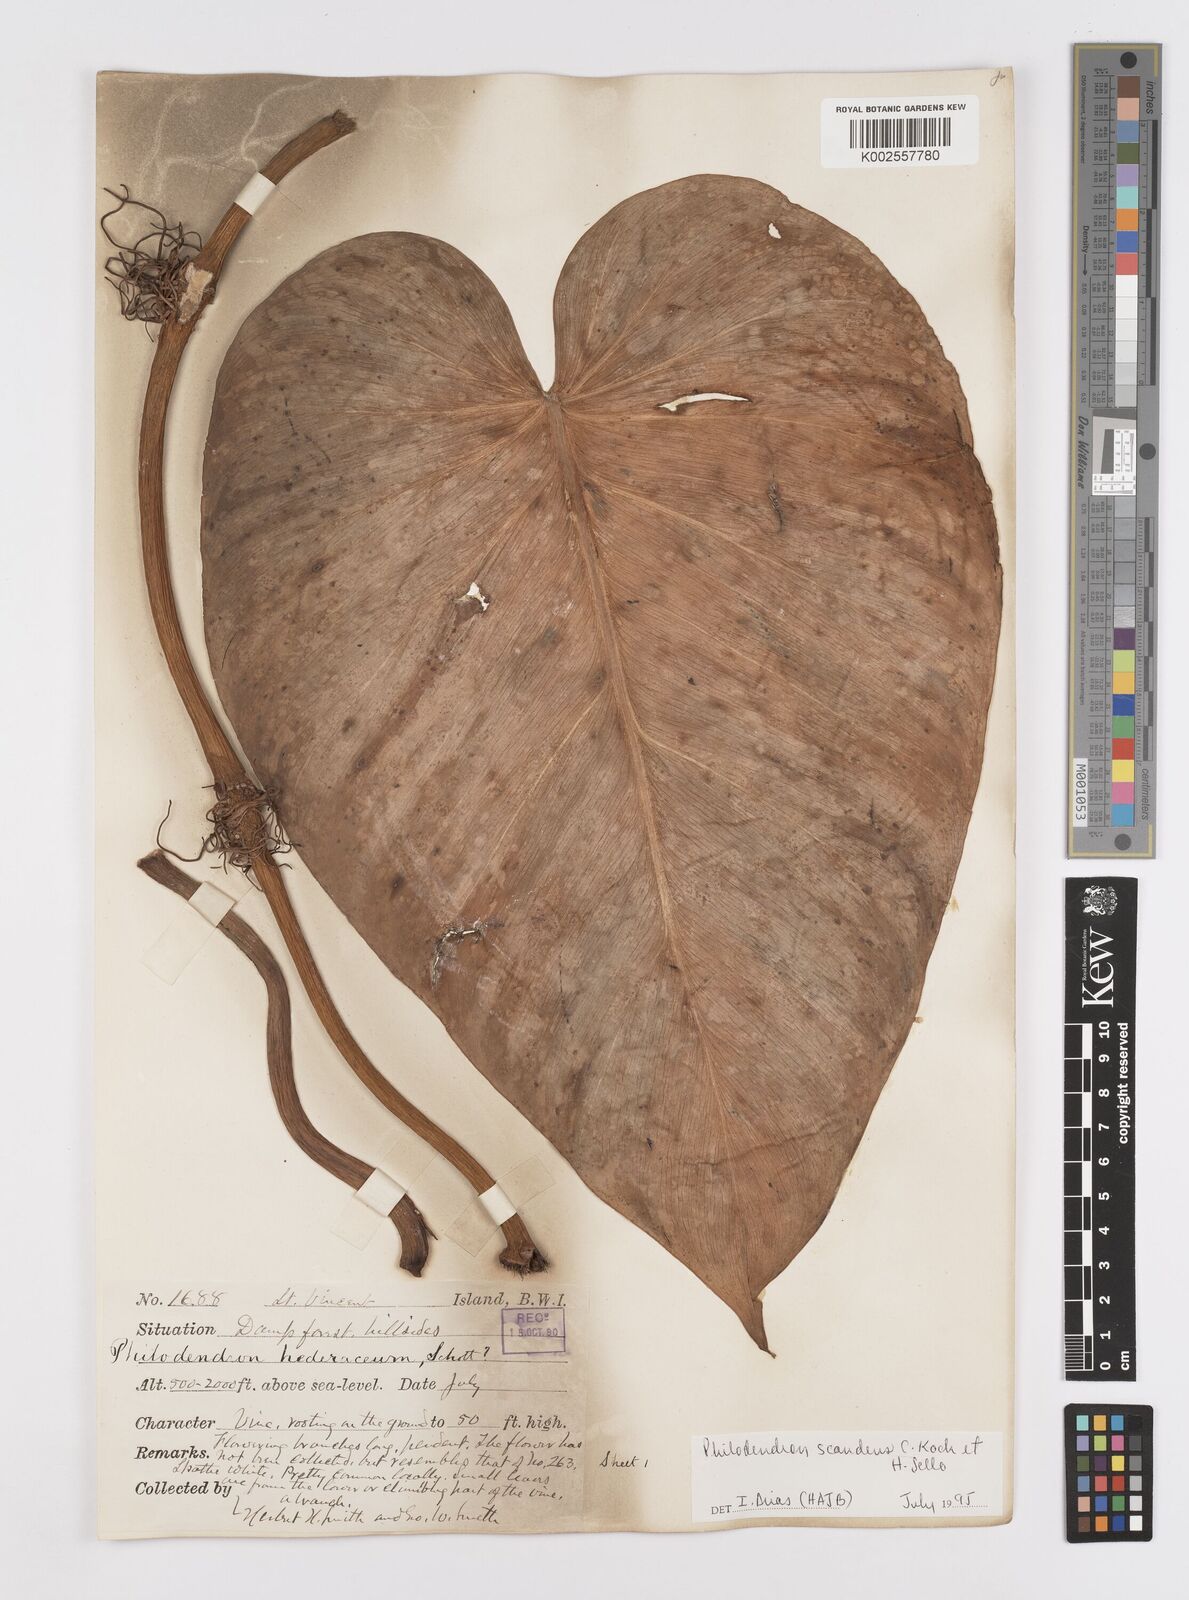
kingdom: Plantae
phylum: Tracheophyta
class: Liliopsida
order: Alismatales
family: Araceae
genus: Philodendron
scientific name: Philodendron hederaceum
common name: Vilevine
